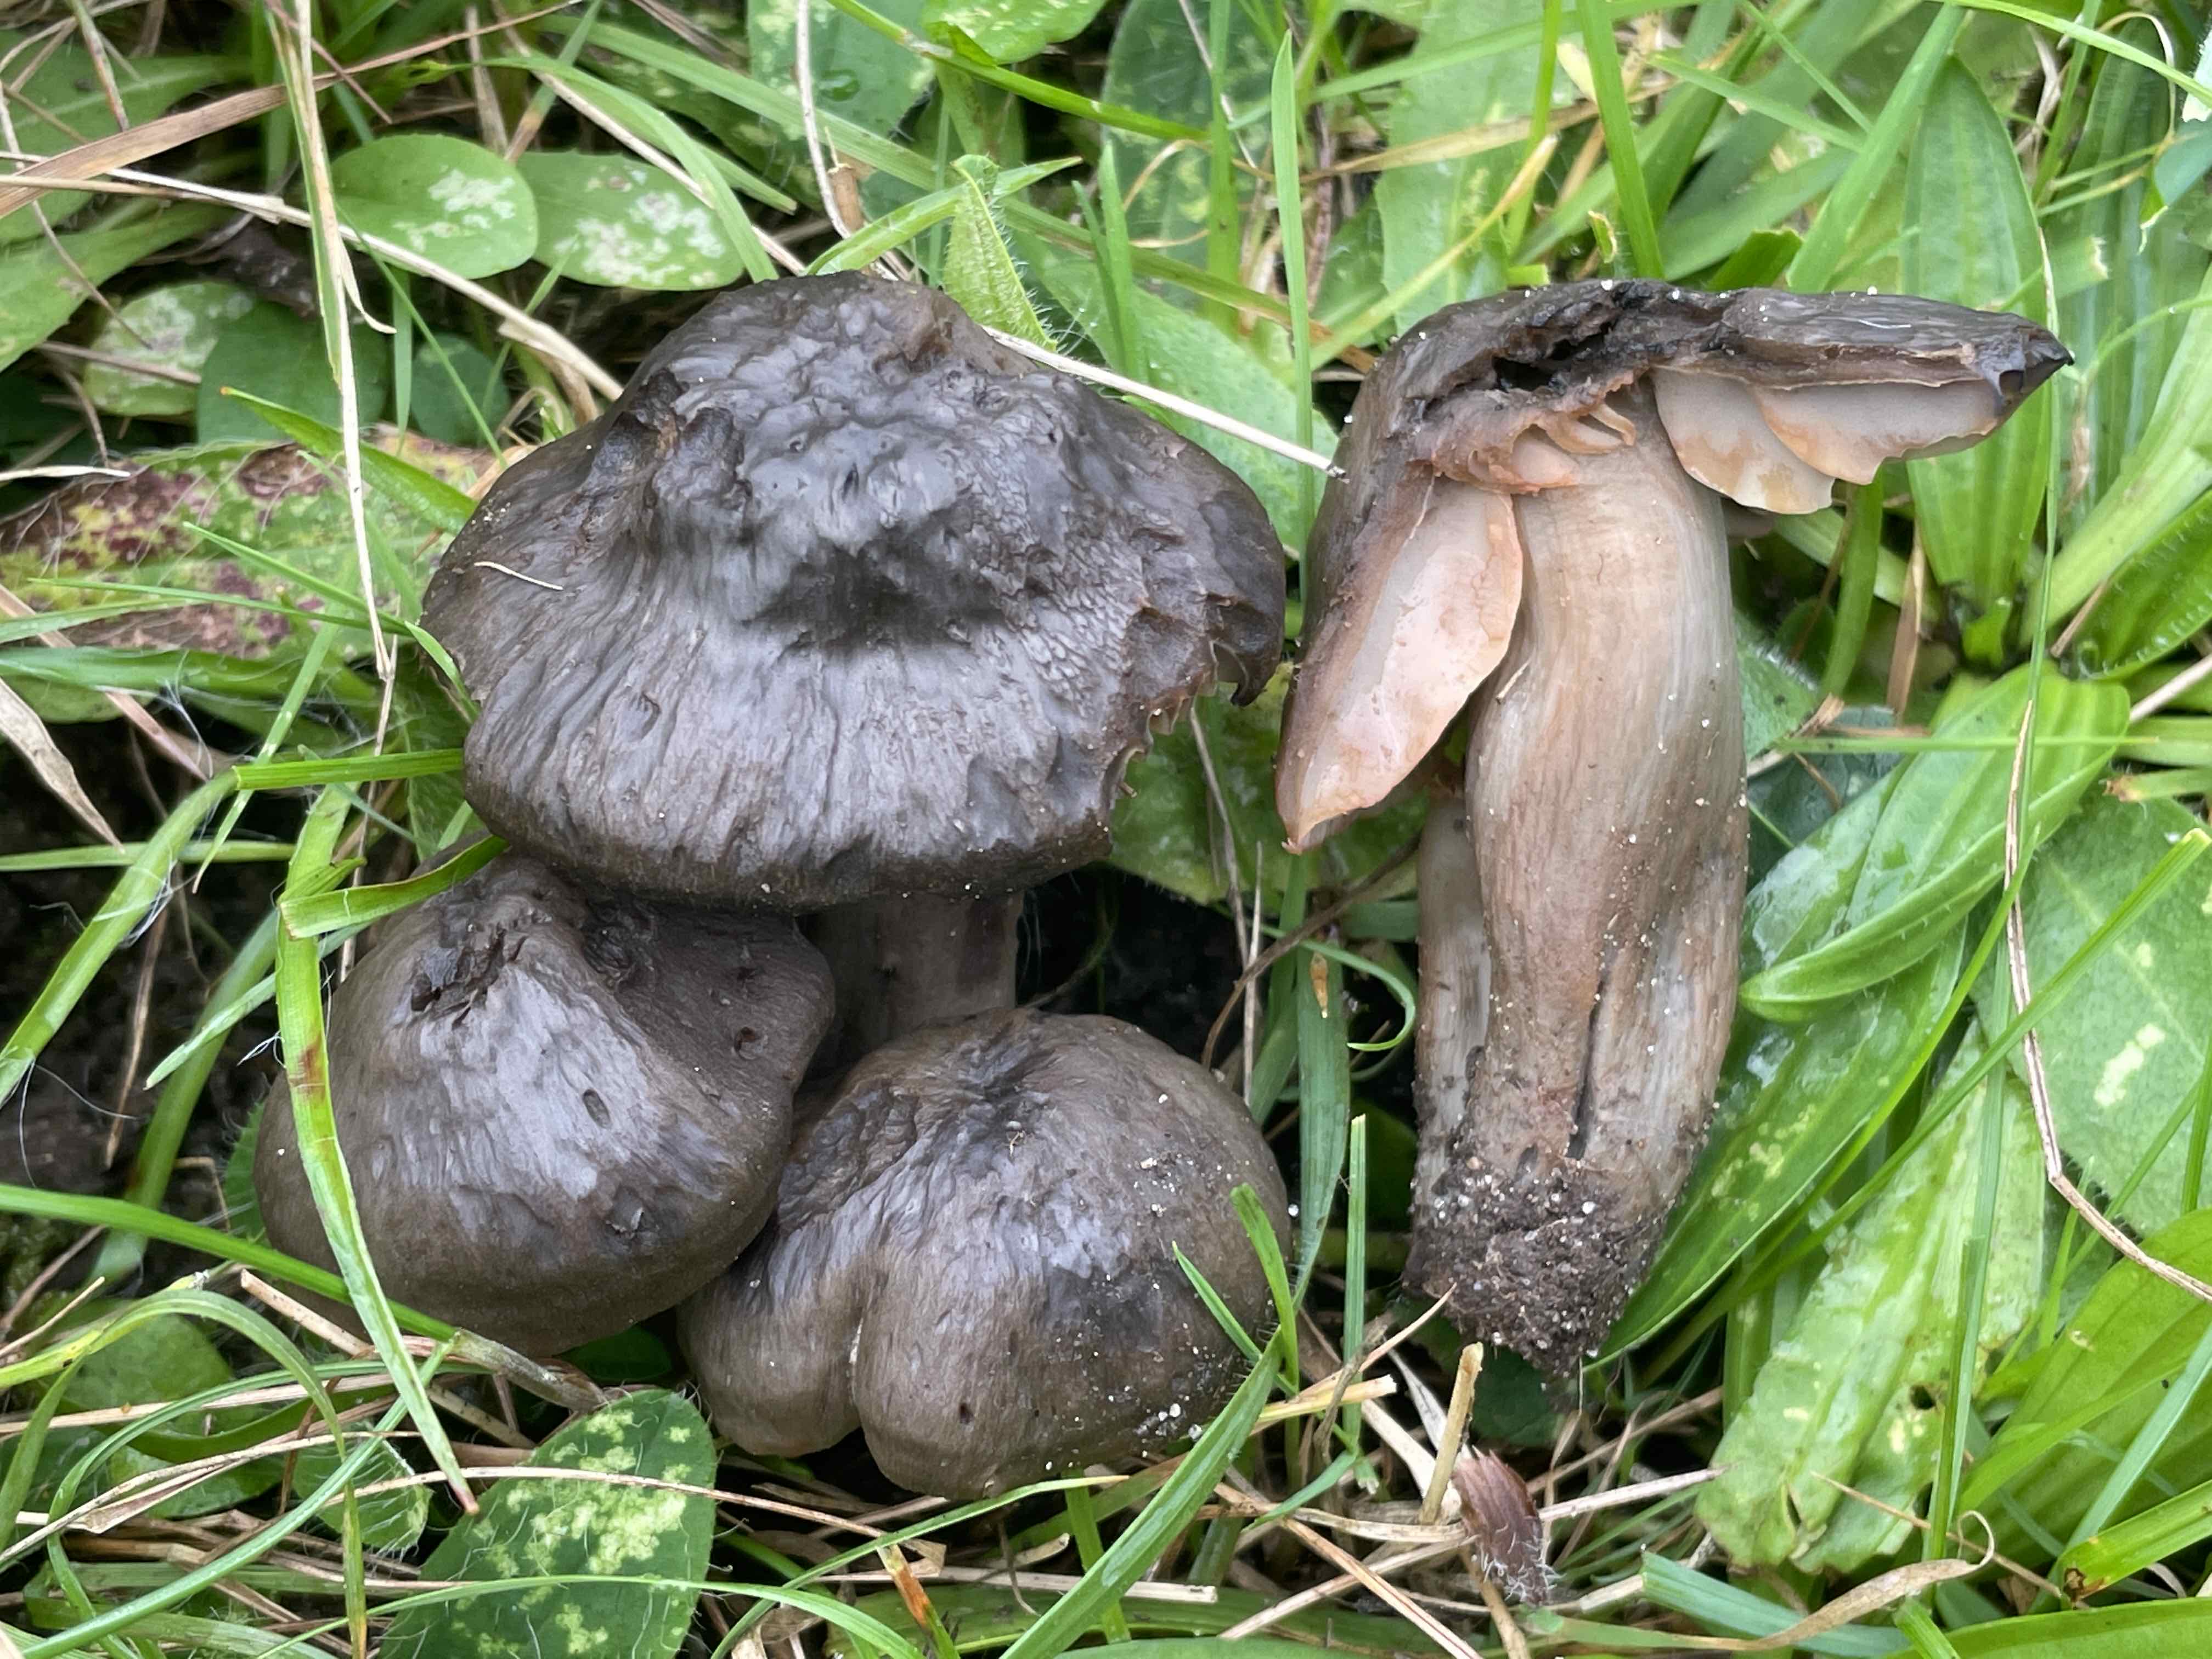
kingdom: Fungi
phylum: Basidiomycota
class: Agaricomycetes
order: Agaricales
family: Hygrophoraceae
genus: Neohygrocybe
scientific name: Neohygrocybe ovina
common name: rødmende vokshat
